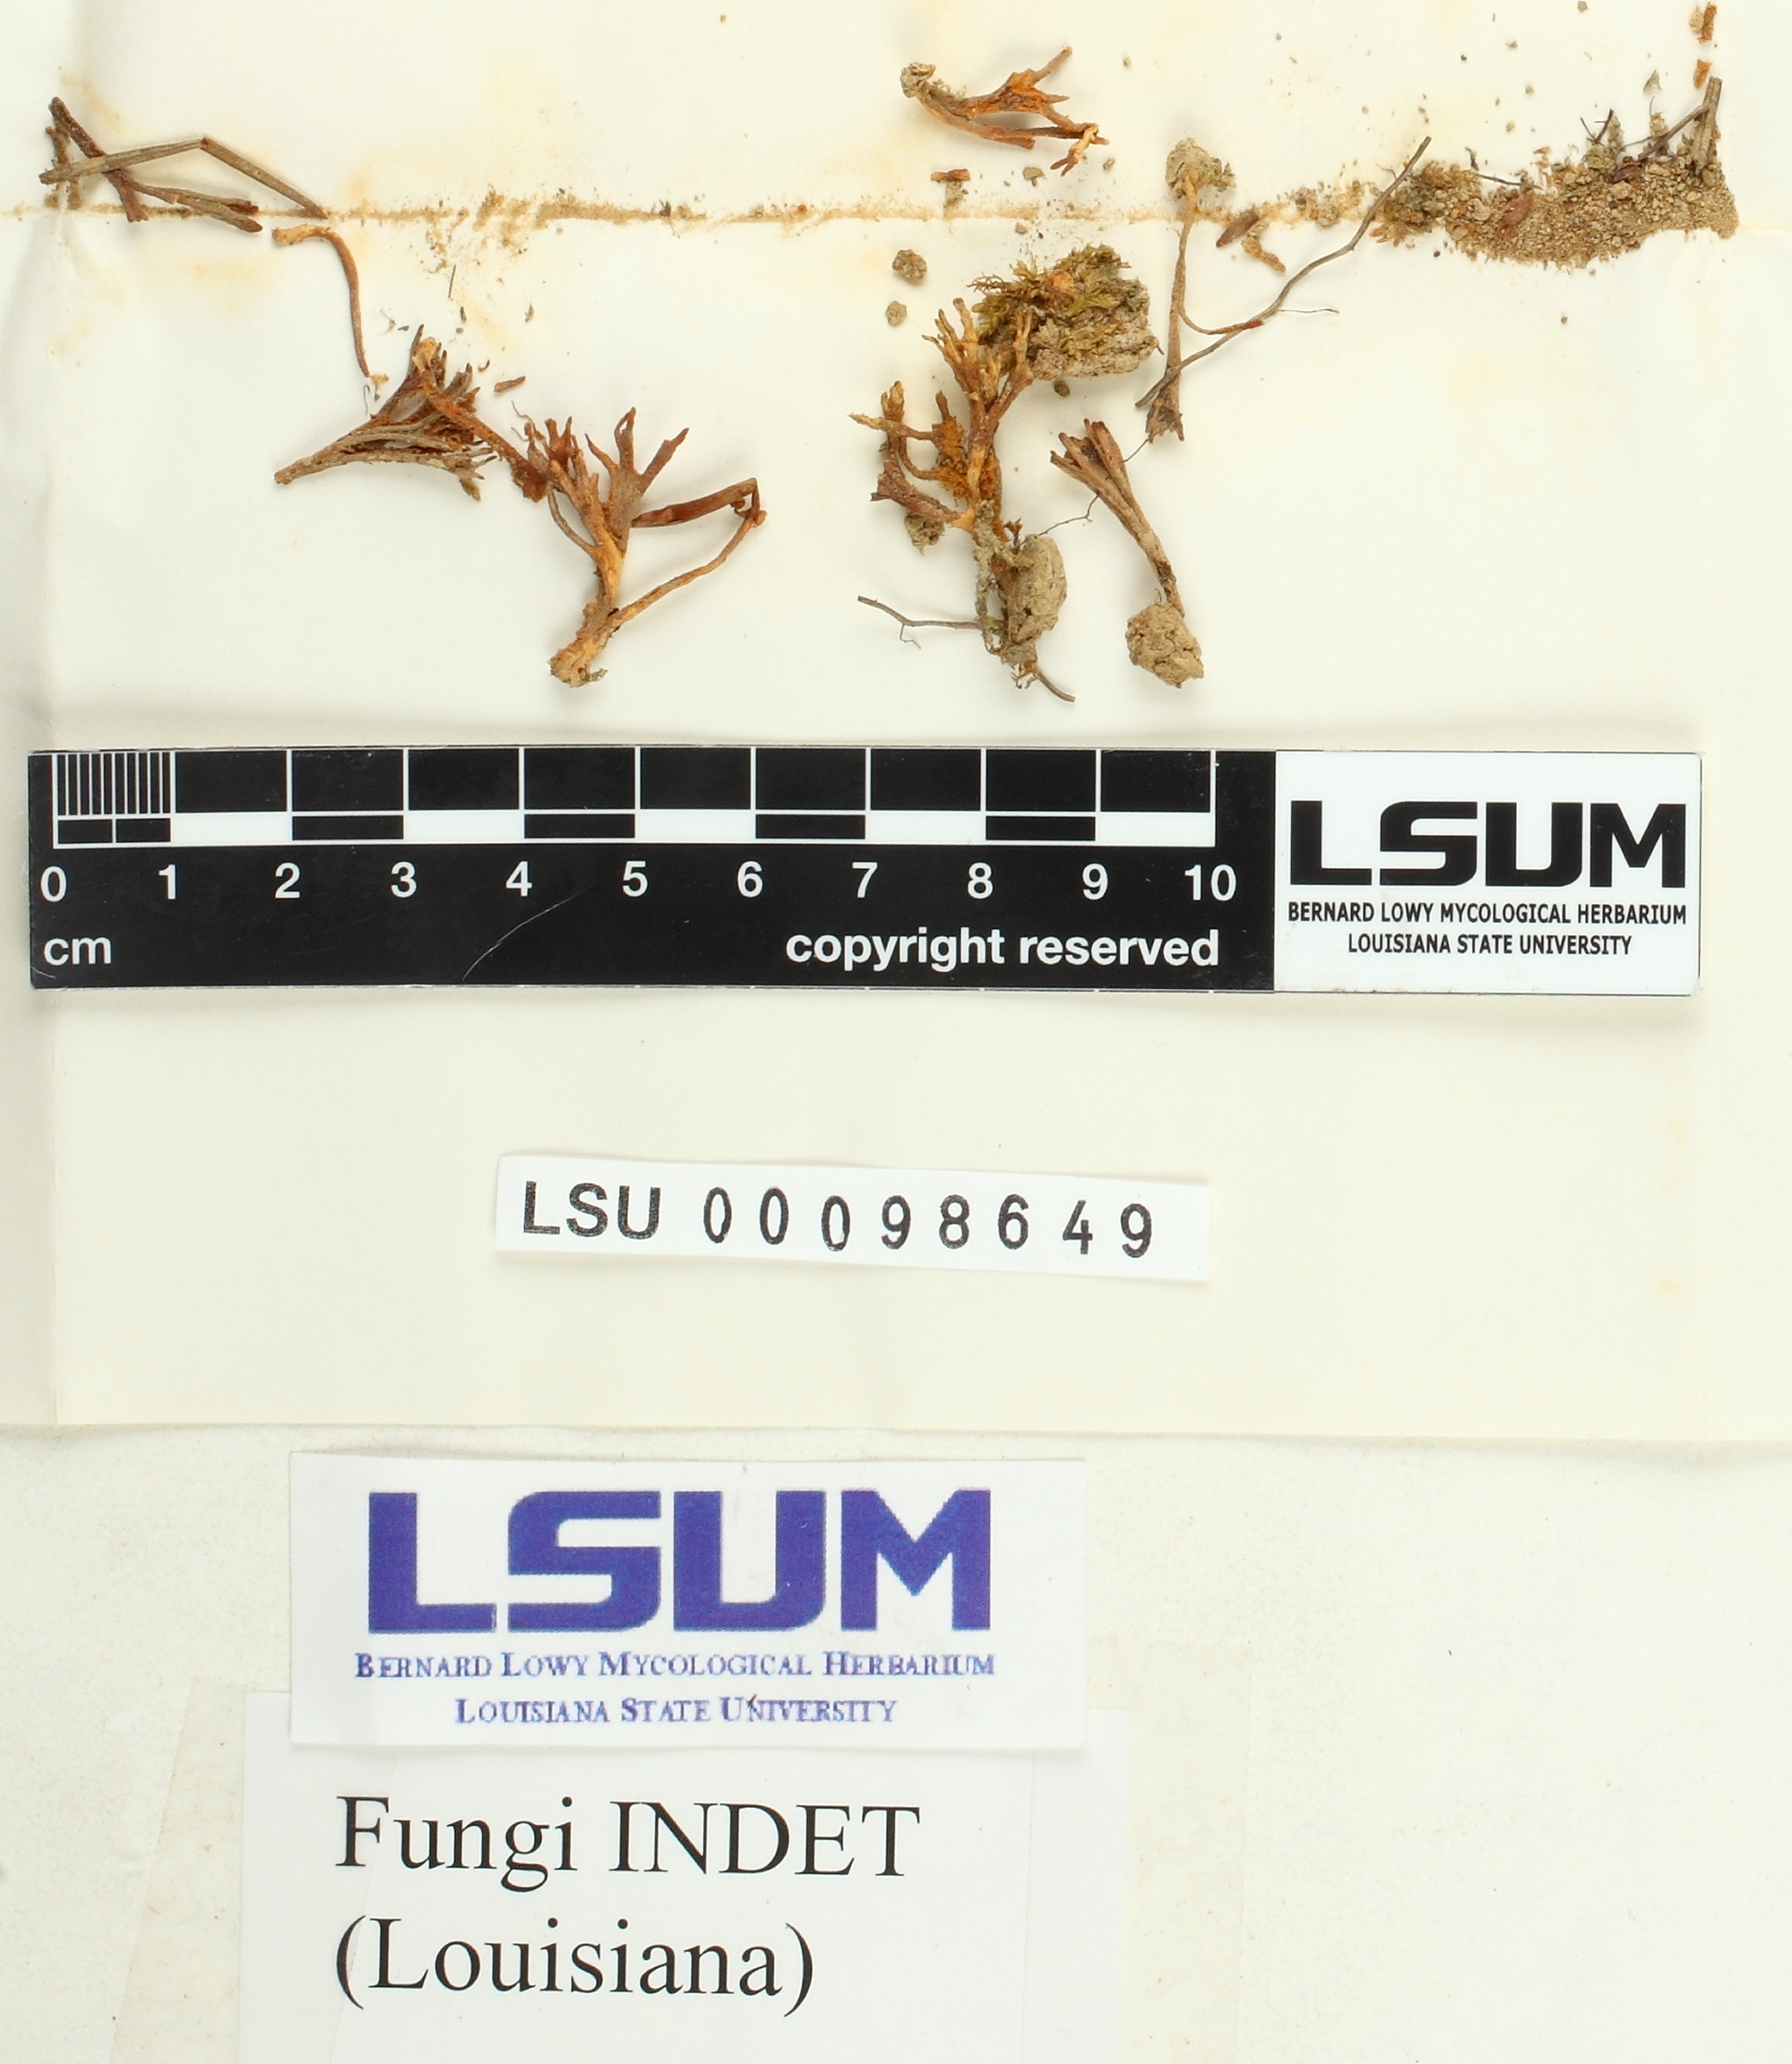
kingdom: Fungi
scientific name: Fungi
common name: Fungi
